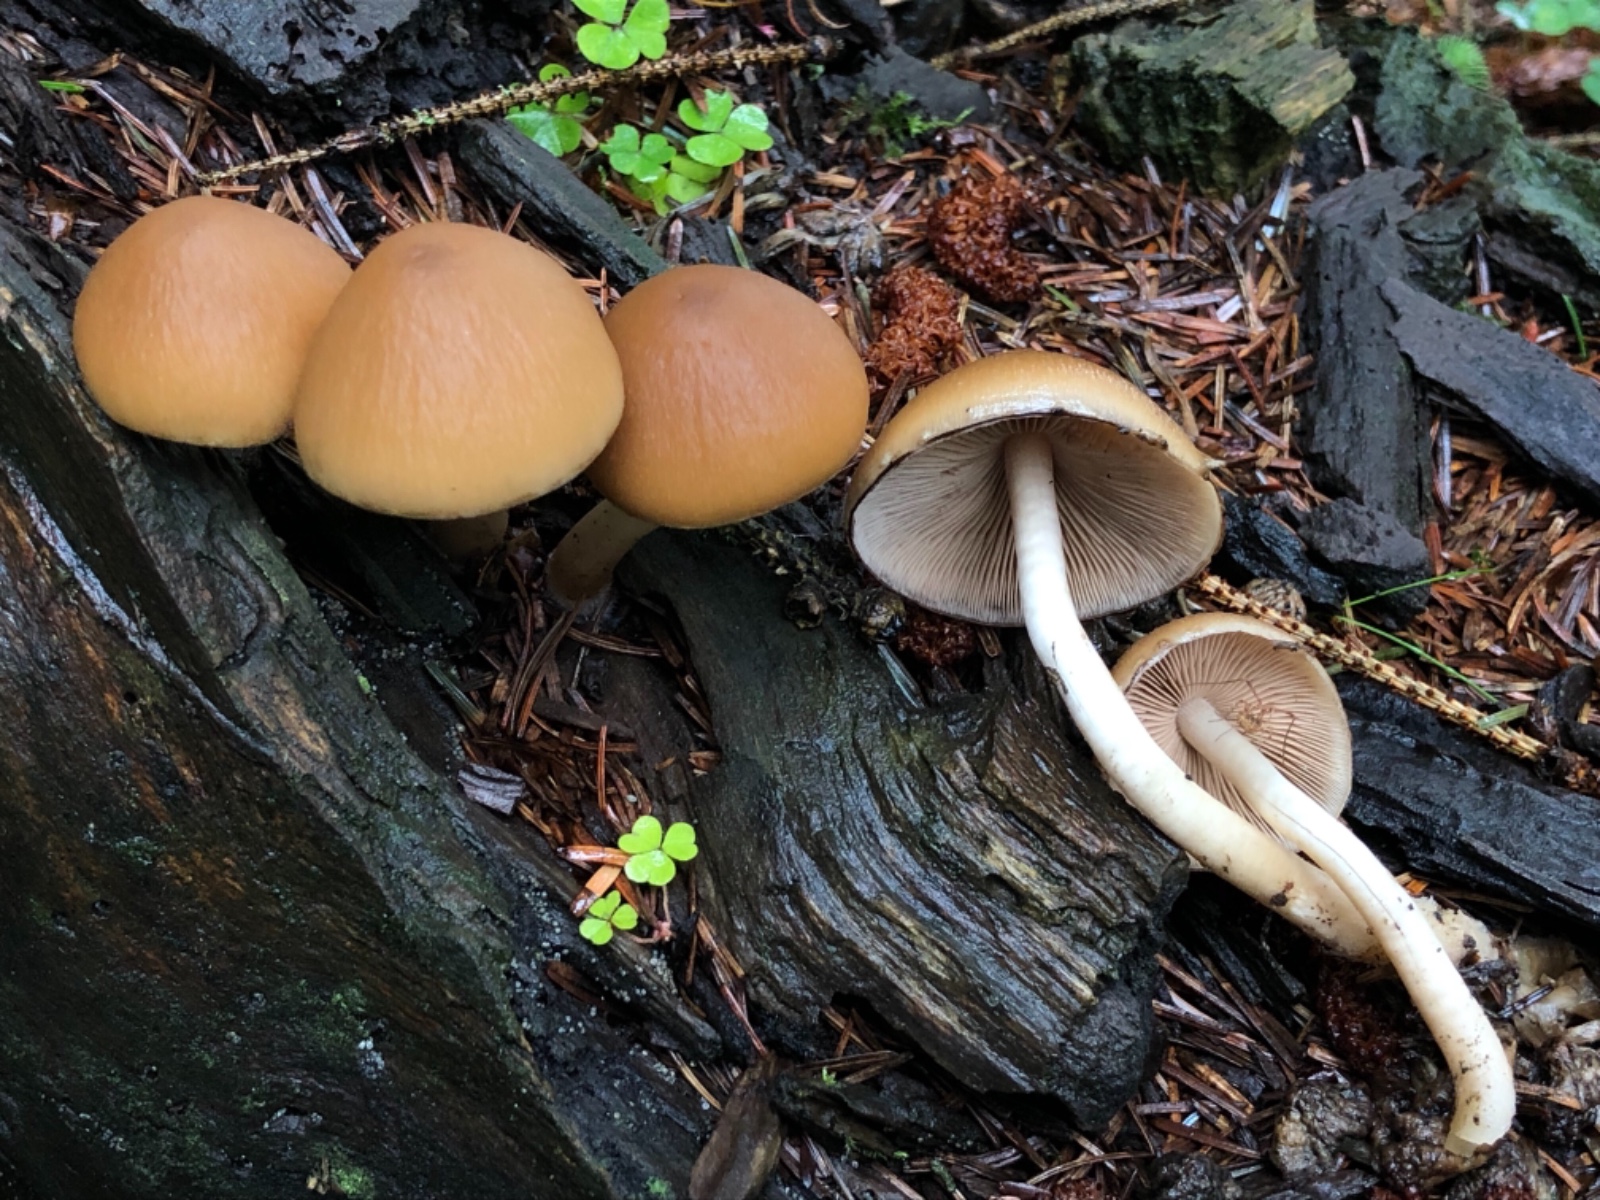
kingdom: Fungi
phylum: Basidiomycota
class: Agaricomycetes
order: Agaricales
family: Psathyrellaceae
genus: Psathyrella
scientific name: Psathyrella piluliformis
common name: lysstokket mørkhat
